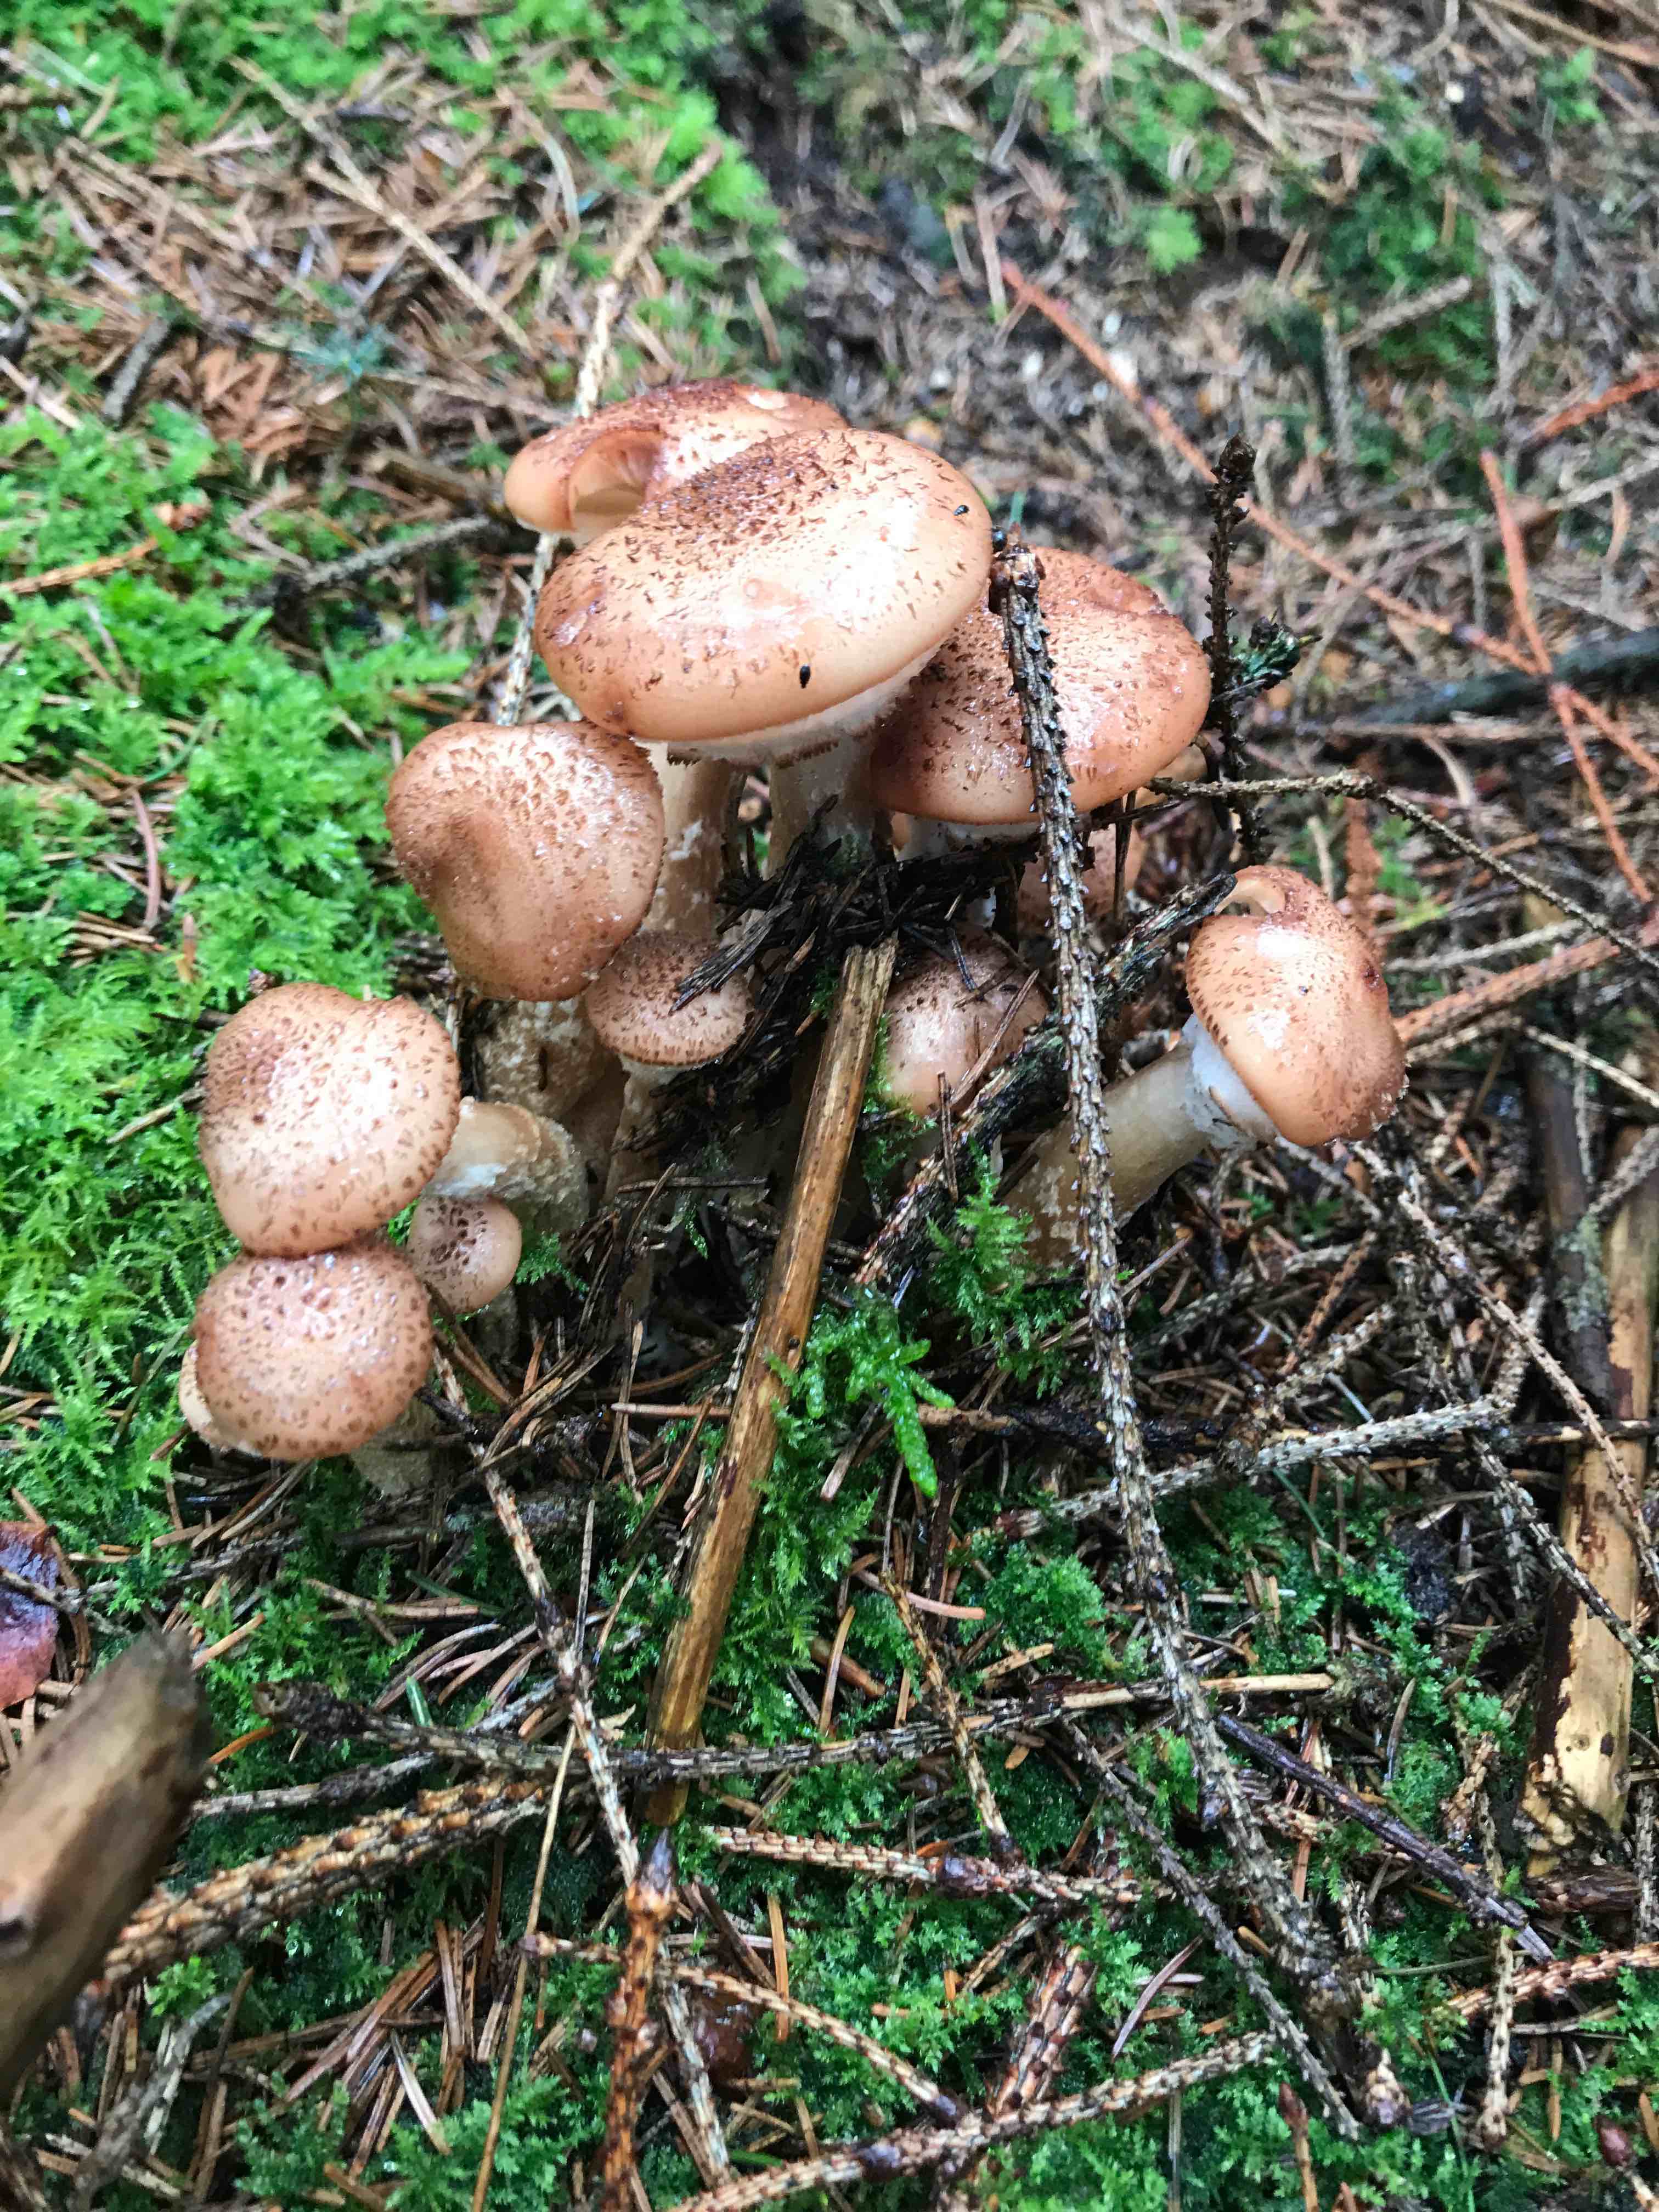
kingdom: Fungi
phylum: Basidiomycota
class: Agaricomycetes
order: Agaricales
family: Physalacriaceae
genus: Armillaria
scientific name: Armillaria ostoyae
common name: mørk honningsvamp
